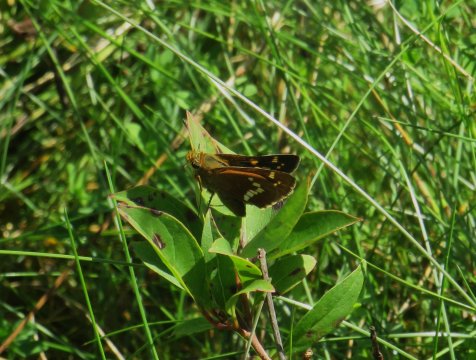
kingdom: Animalia
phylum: Arthropoda
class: Insecta
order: Lepidoptera
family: Hesperiidae
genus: Hesperia
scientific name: Hesperia leonardus
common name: Leonard's Skipper
